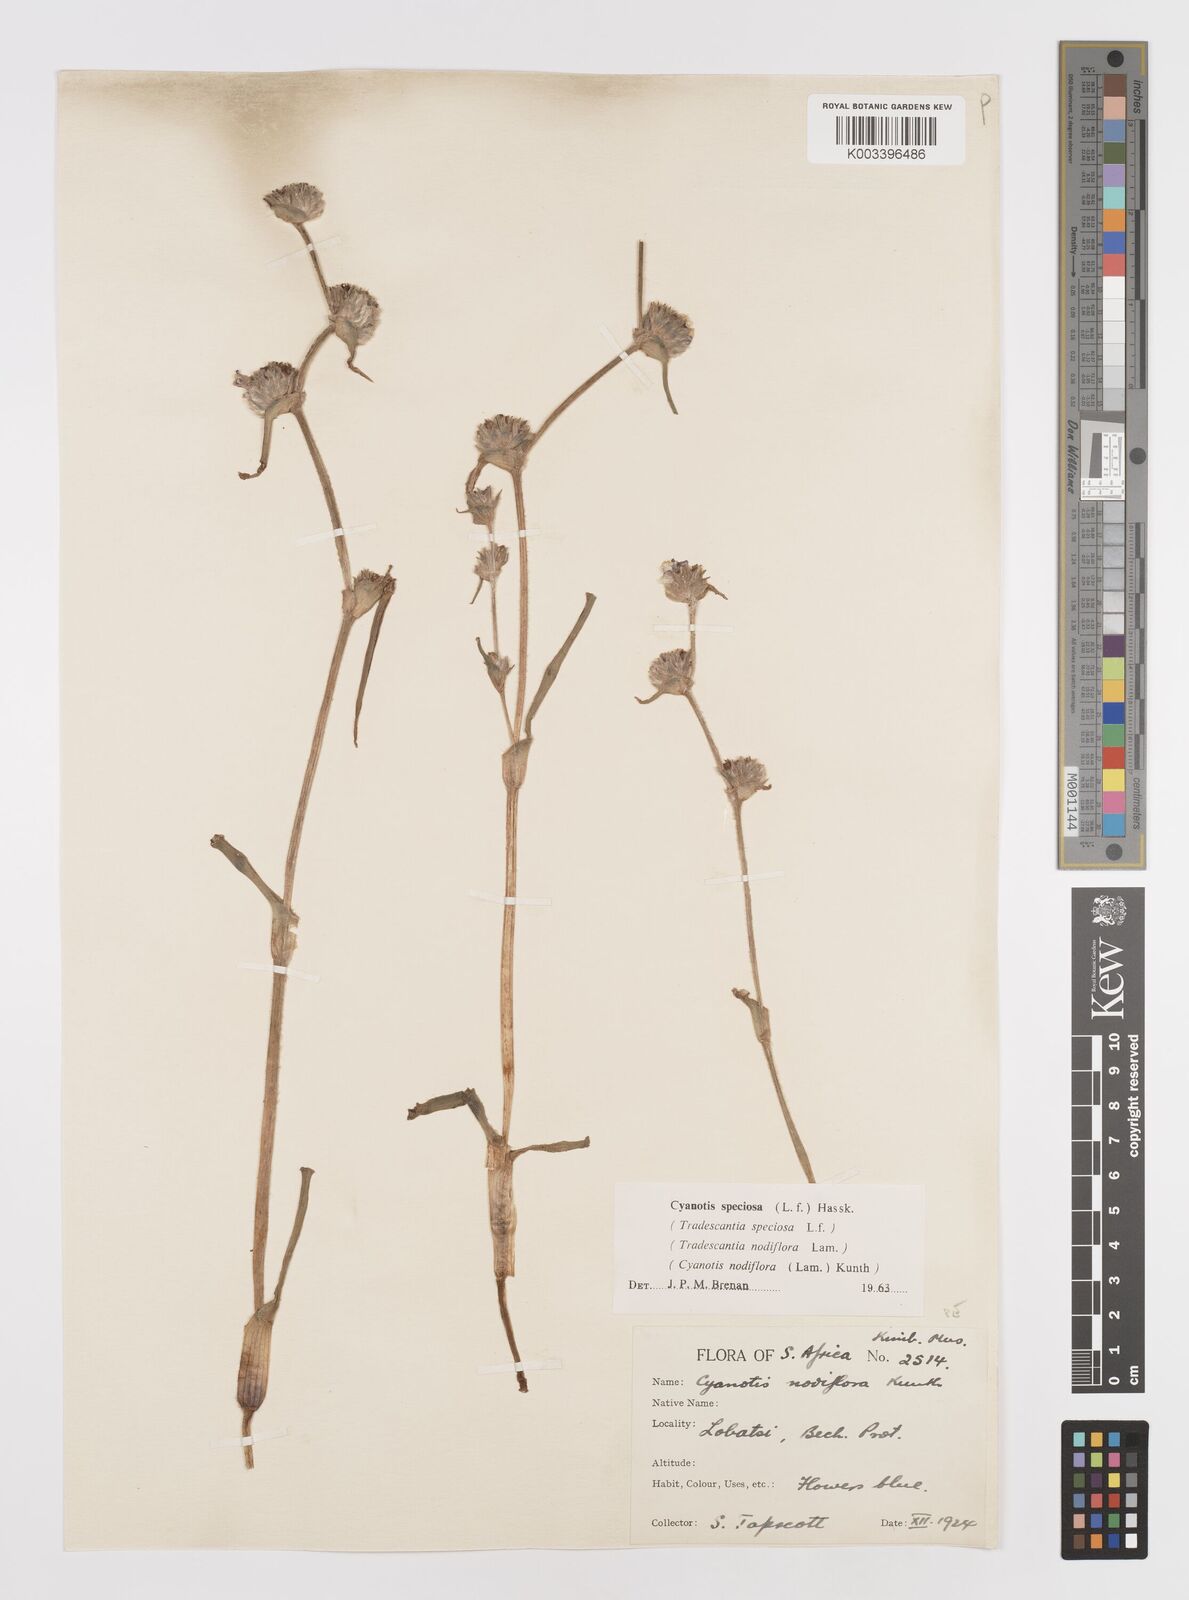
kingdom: Plantae
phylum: Tracheophyta
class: Liliopsida
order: Commelinales
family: Commelinaceae
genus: Cyanotis
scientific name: Cyanotis speciosa
